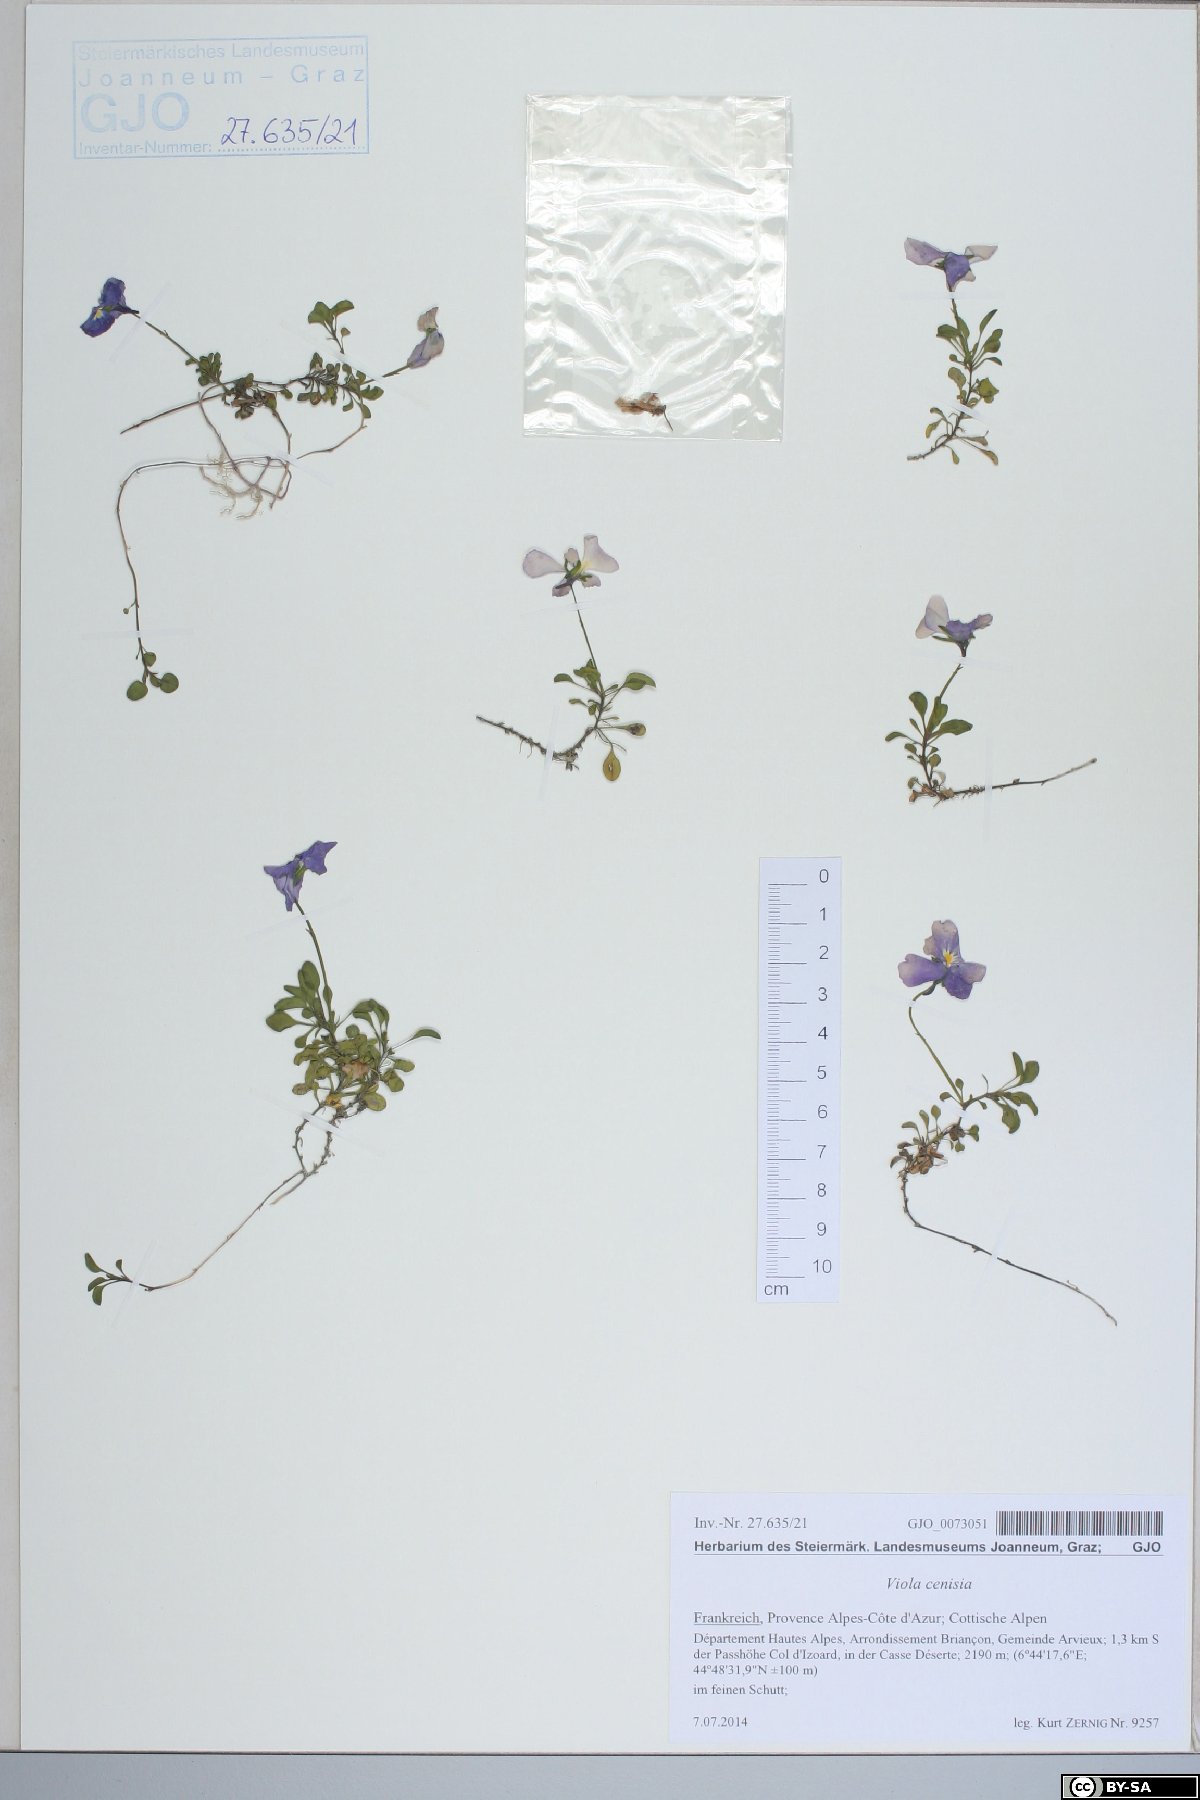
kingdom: Plantae
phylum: Tracheophyta
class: Magnoliopsida
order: Malpighiales
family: Violaceae
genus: Viola
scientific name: Viola cenisia
